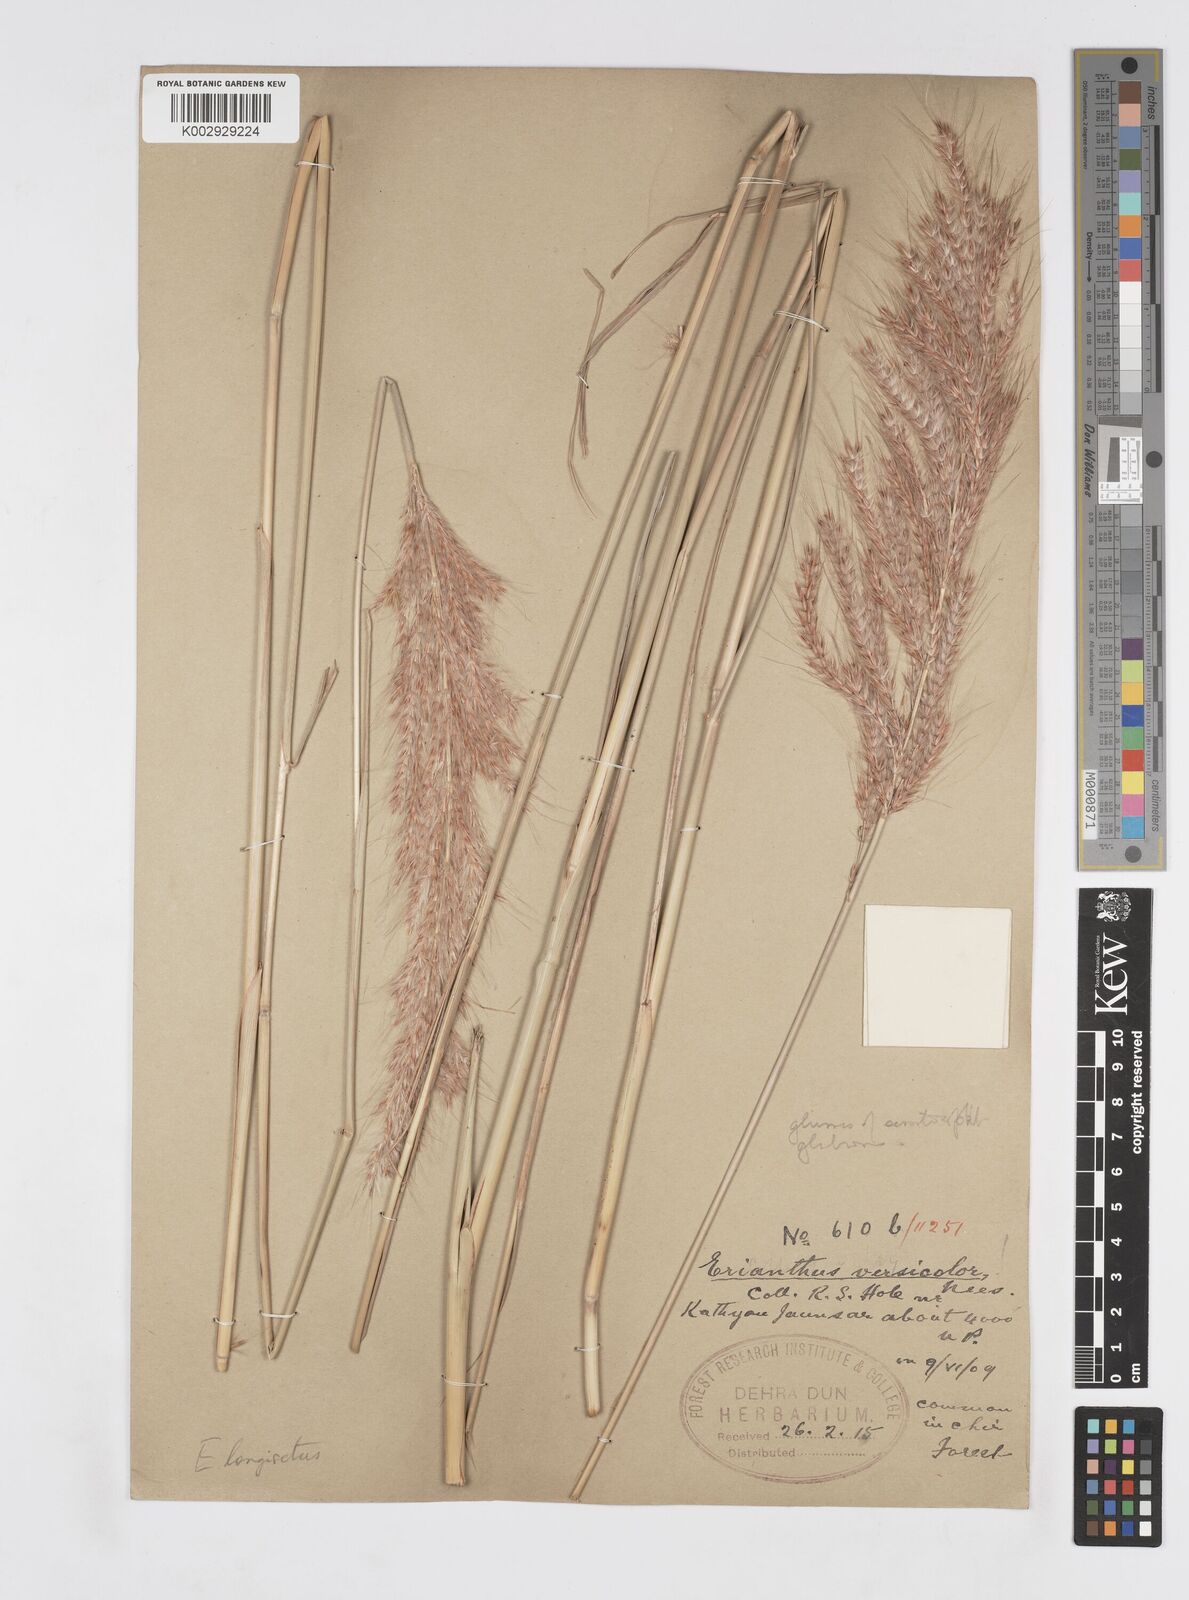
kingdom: Plantae
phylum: Tracheophyta
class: Liliopsida
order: Poales
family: Poaceae
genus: Melinis
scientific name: Melinis longiseta
